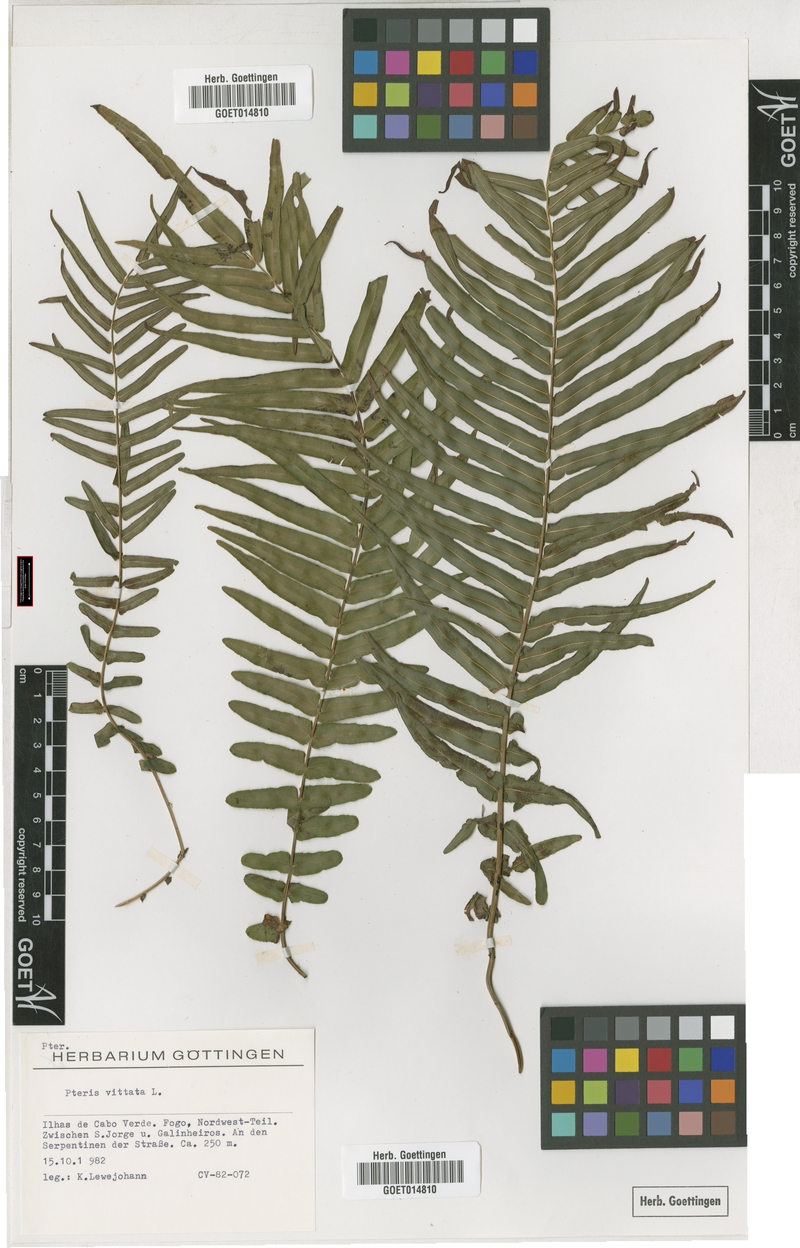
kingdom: Plantae
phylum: Tracheophyta
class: Polypodiopsida
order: Polypodiales
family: Pteridaceae
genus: Pteris
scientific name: Pteris vittata
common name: Ladder brake
